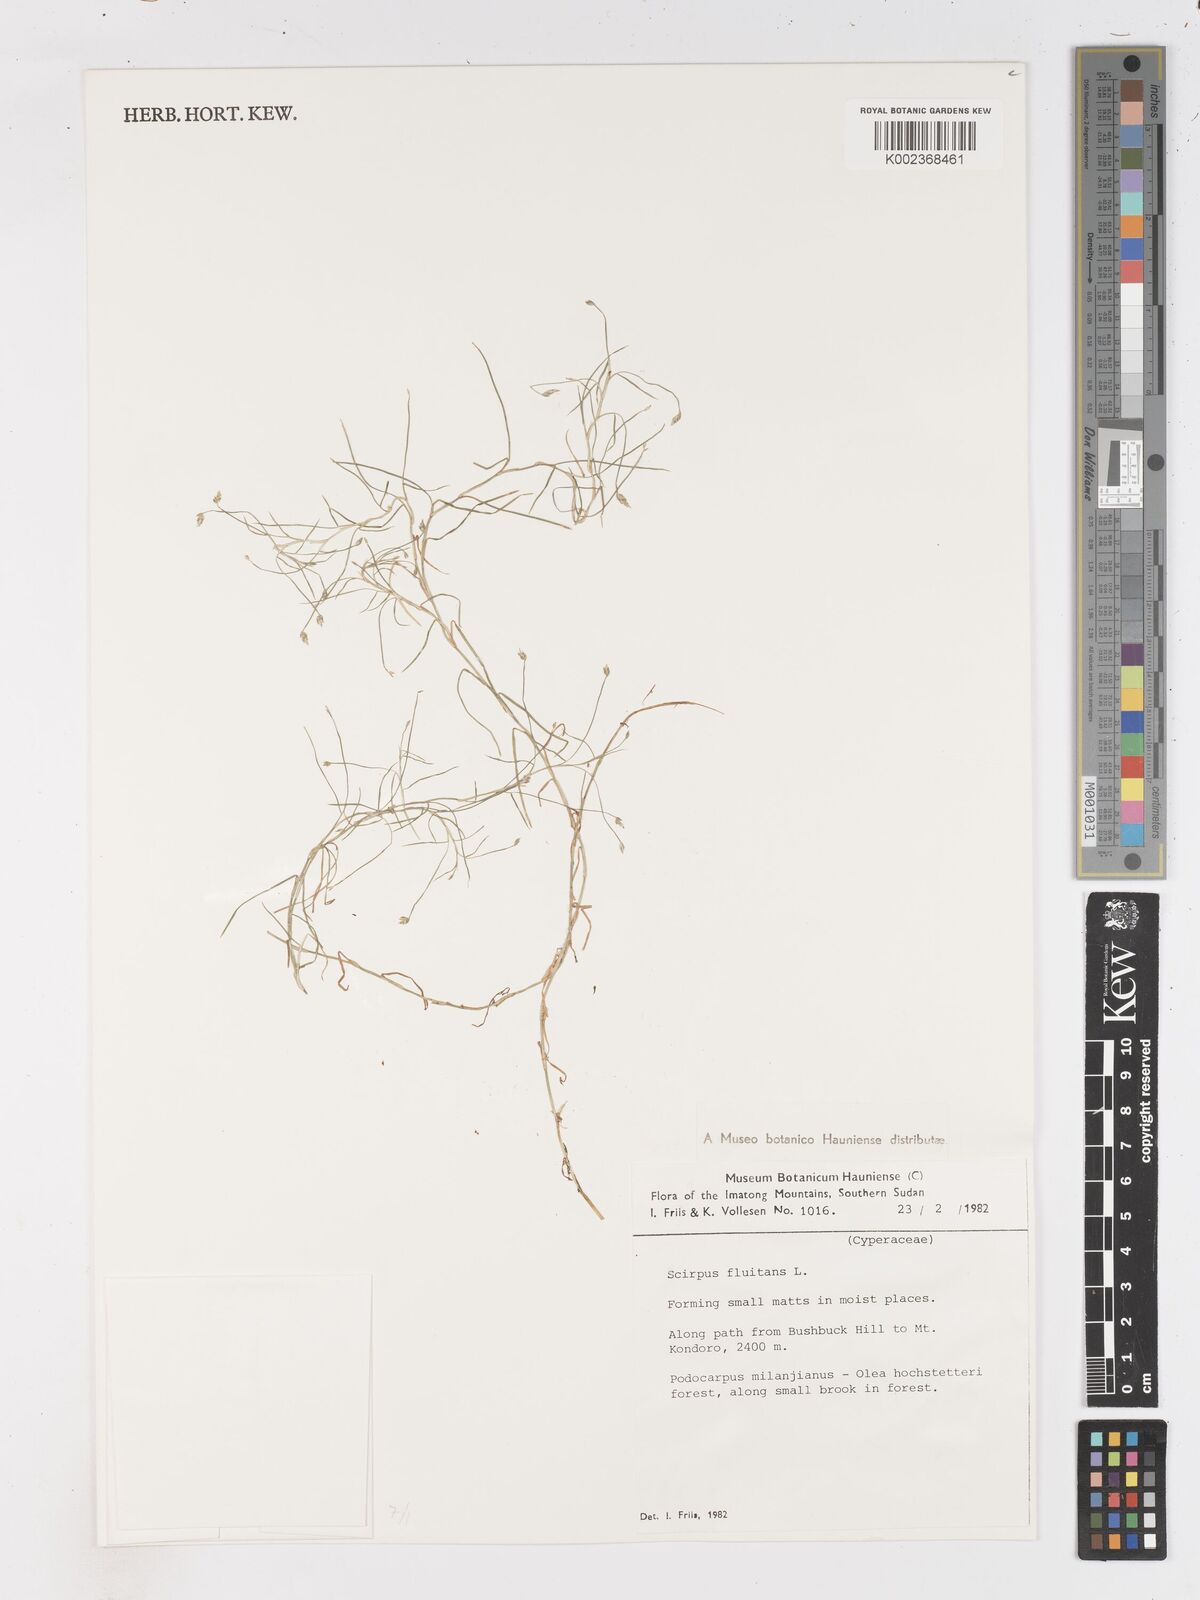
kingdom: Plantae
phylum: Tracheophyta
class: Liliopsida
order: Poales
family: Cyperaceae
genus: Isolepis
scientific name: Isolepis fluitans
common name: Floating club-rush
